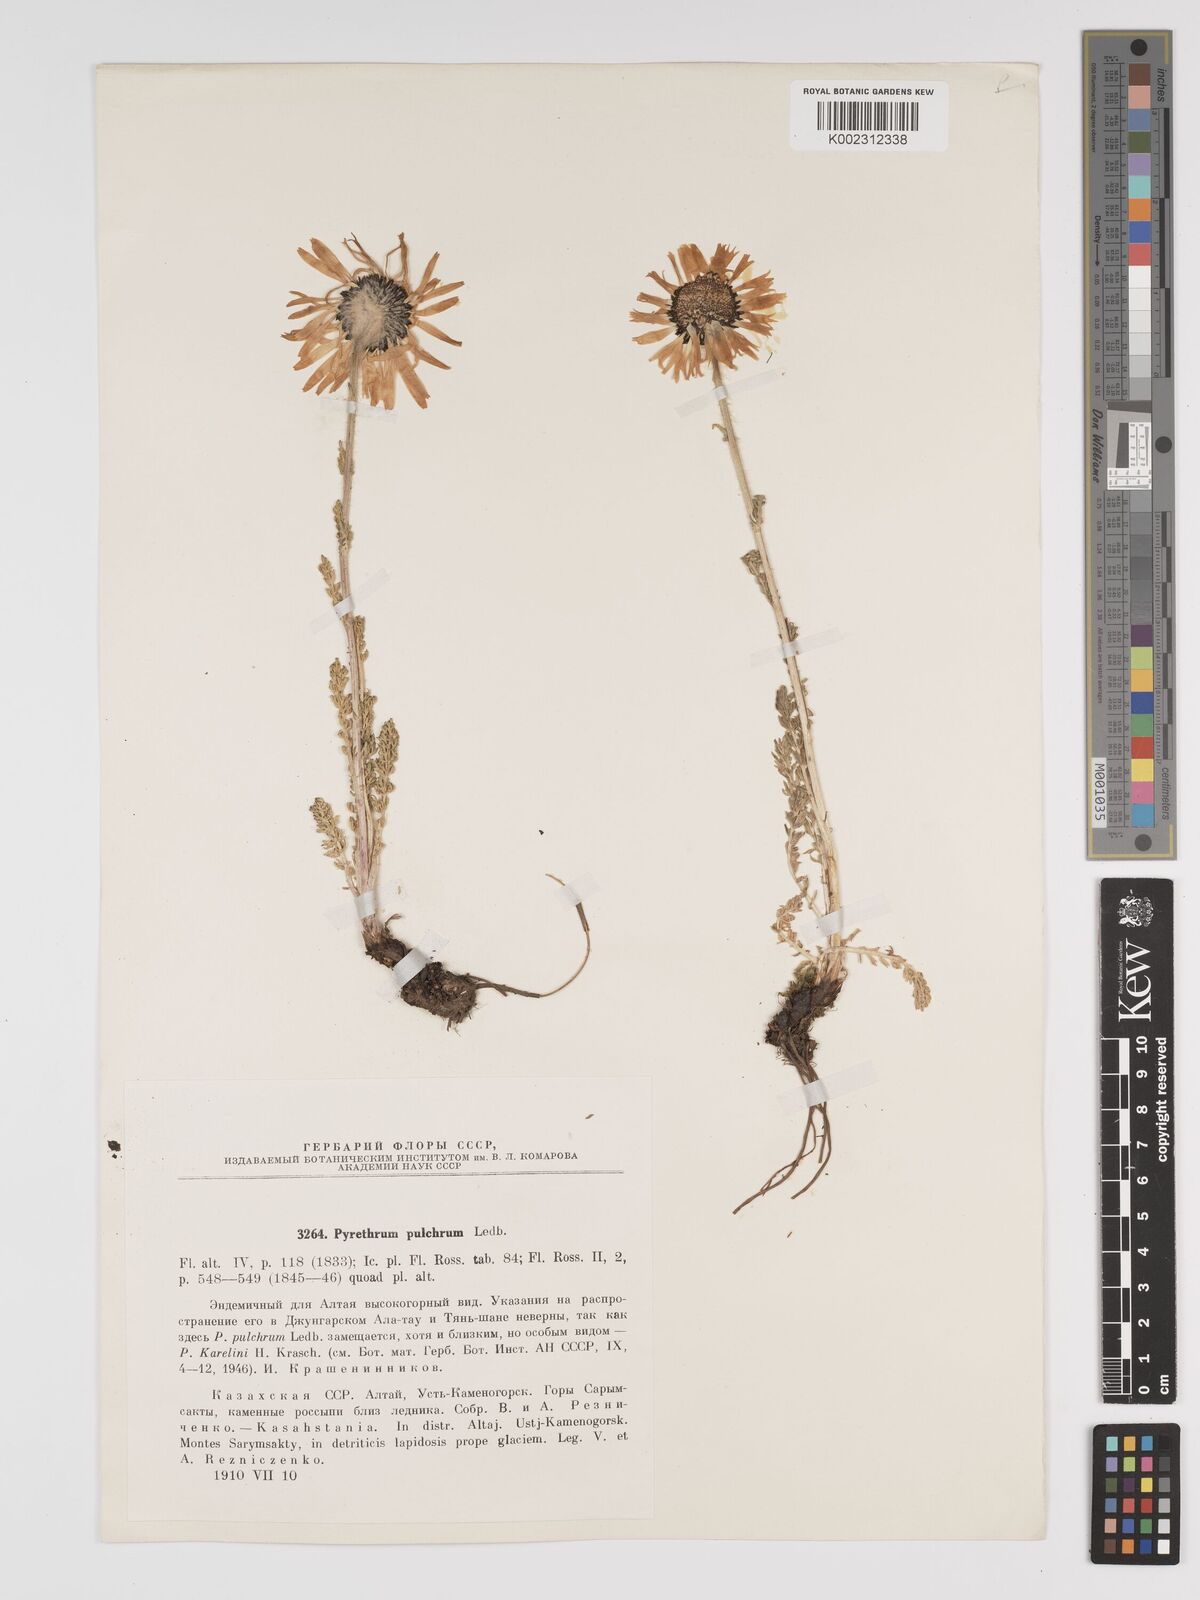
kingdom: Plantae
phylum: Tracheophyta
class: Magnoliopsida
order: Asterales
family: Asteraceae
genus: Tanacetum
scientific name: Tanacetum pulchellum
